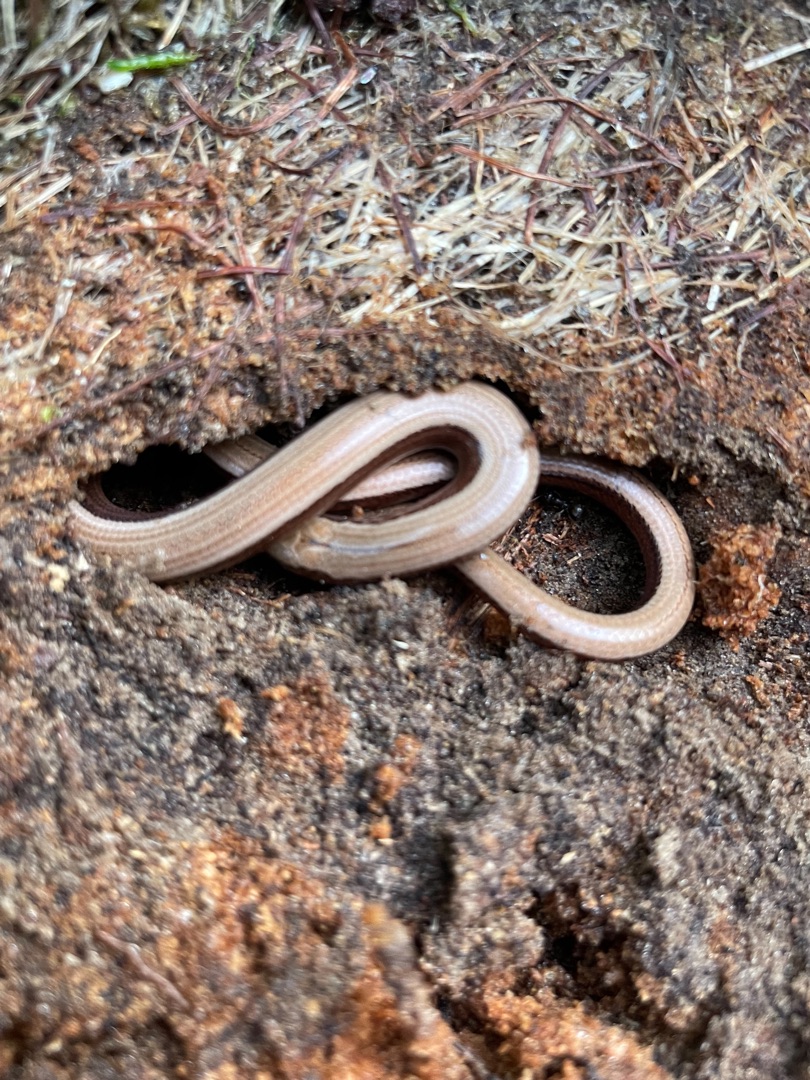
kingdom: Animalia
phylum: Chordata
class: Squamata
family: Anguidae
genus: Anguis
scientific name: Anguis fragilis
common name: Stålorm
